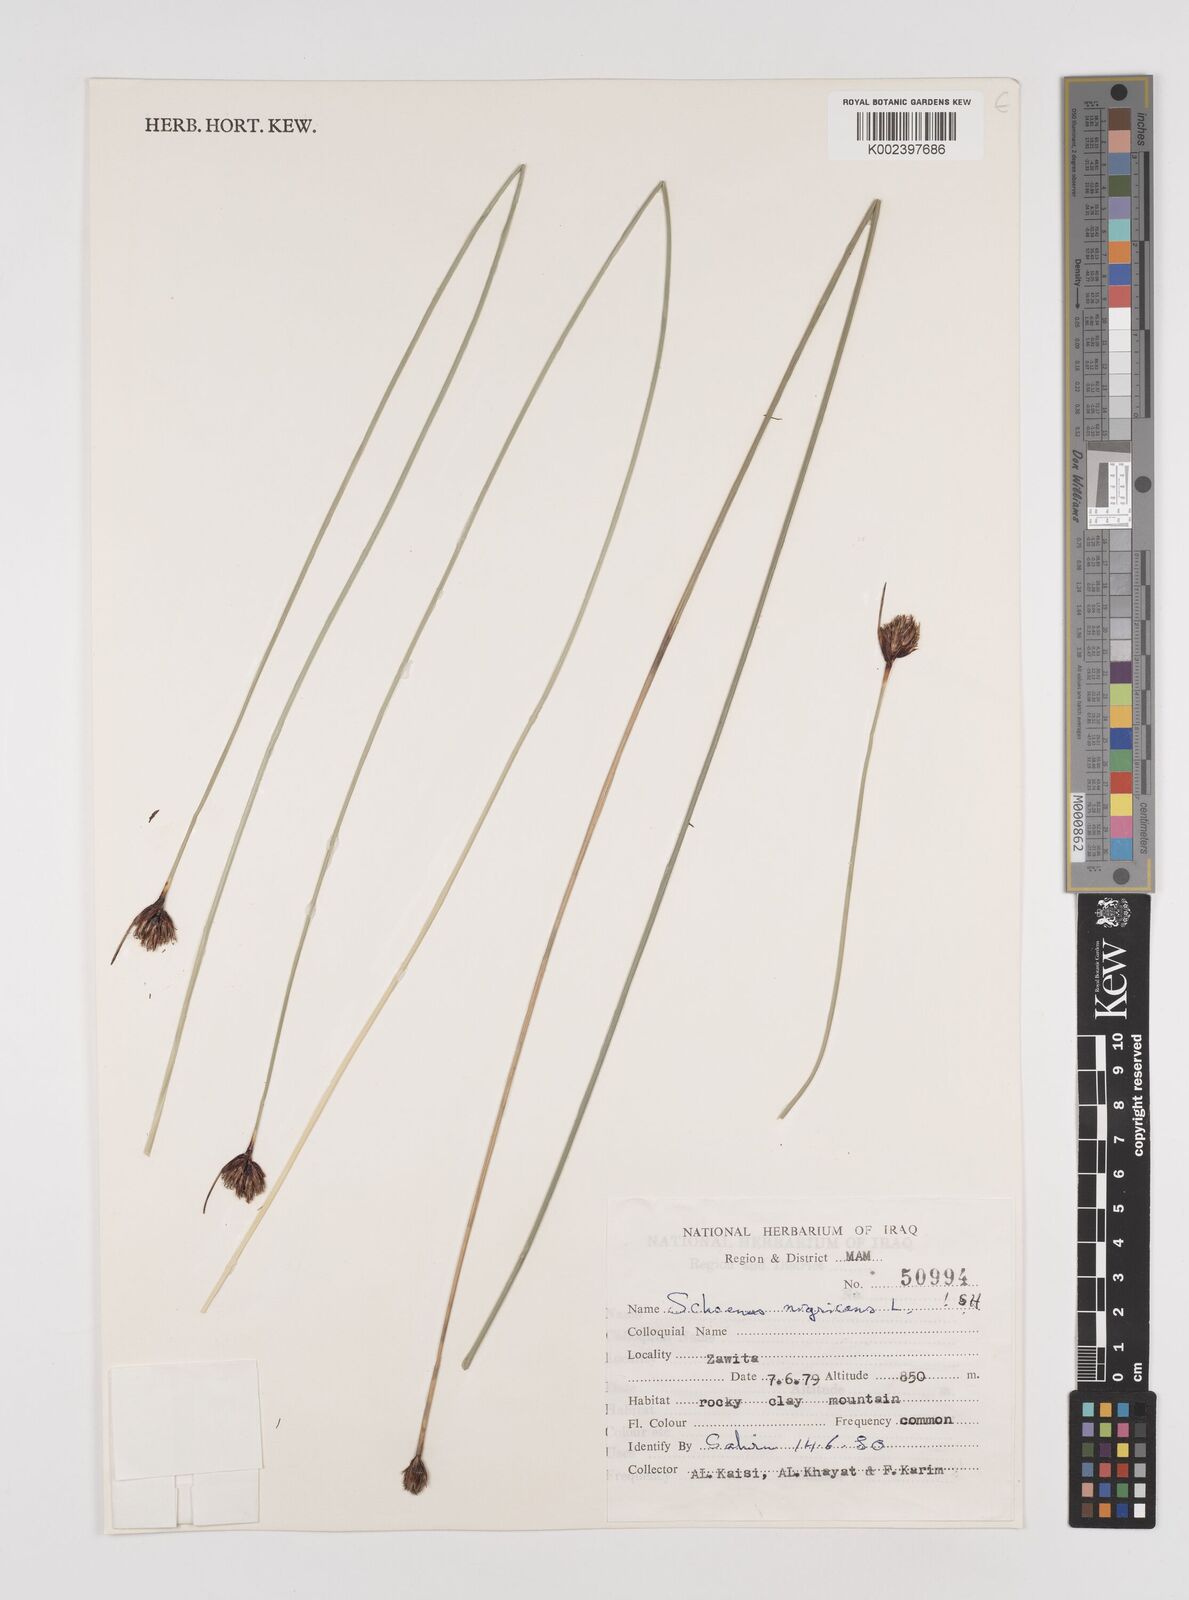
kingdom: Plantae
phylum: Tracheophyta
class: Liliopsida
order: Poales
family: Cyperaceae
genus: Schoenus
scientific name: Schoenus nigricans
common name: Black bog-rush
